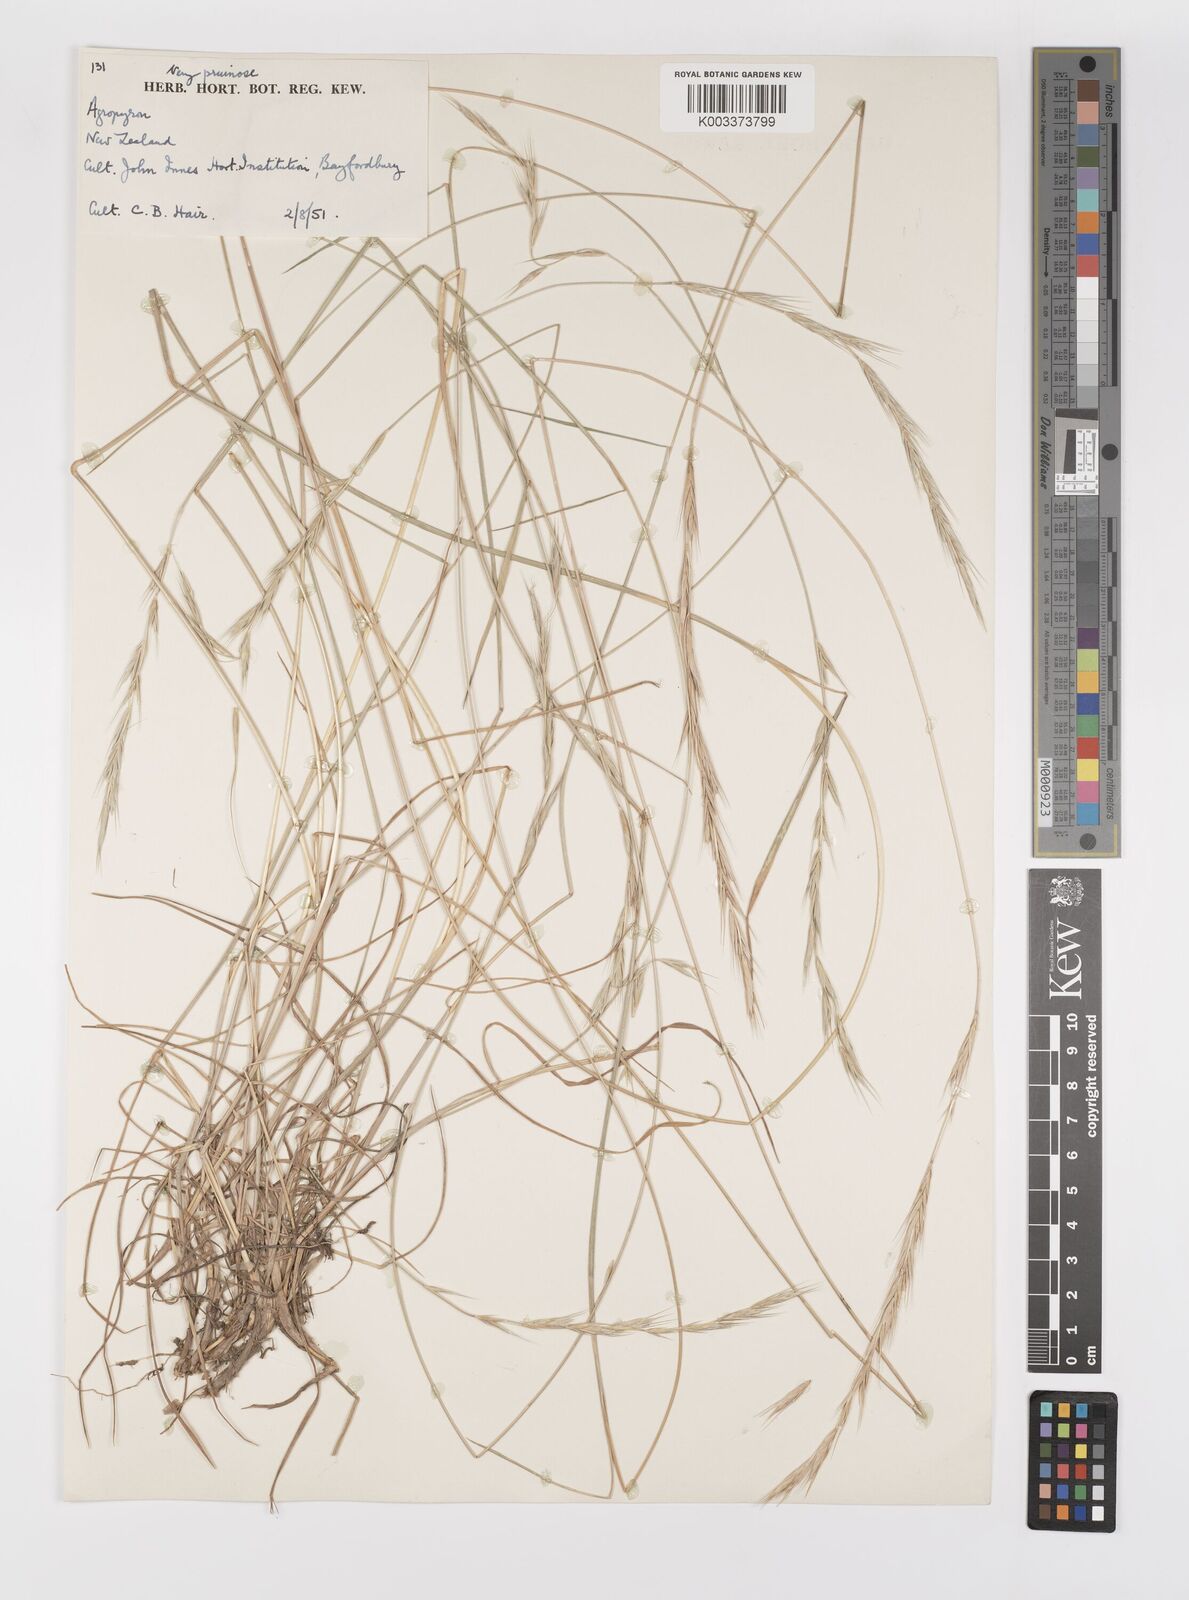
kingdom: Plantae
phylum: Tracheophyta
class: Liliopsida
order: Poales
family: Poaceae
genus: Elymus
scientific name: Elymus
